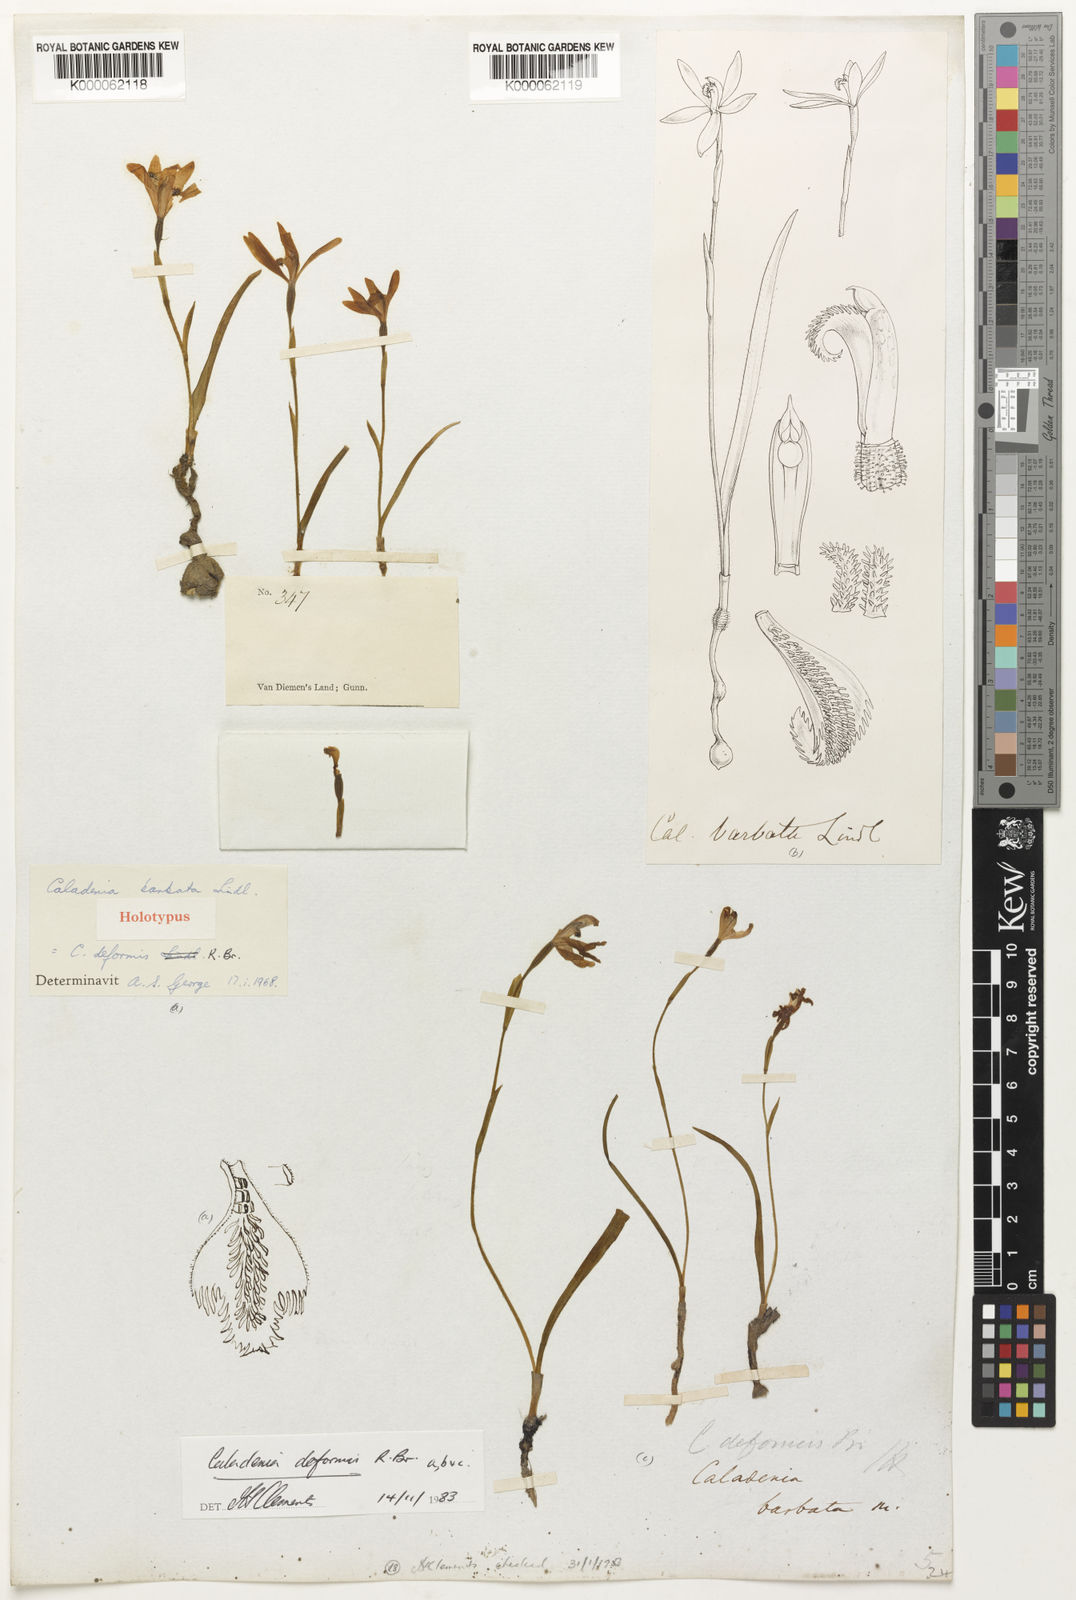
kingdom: Plantae
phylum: Tracheophyta
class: Liliopsida
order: Asparagales
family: Orchidaceae
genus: Pheladenia
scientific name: Pheladenia deformis
